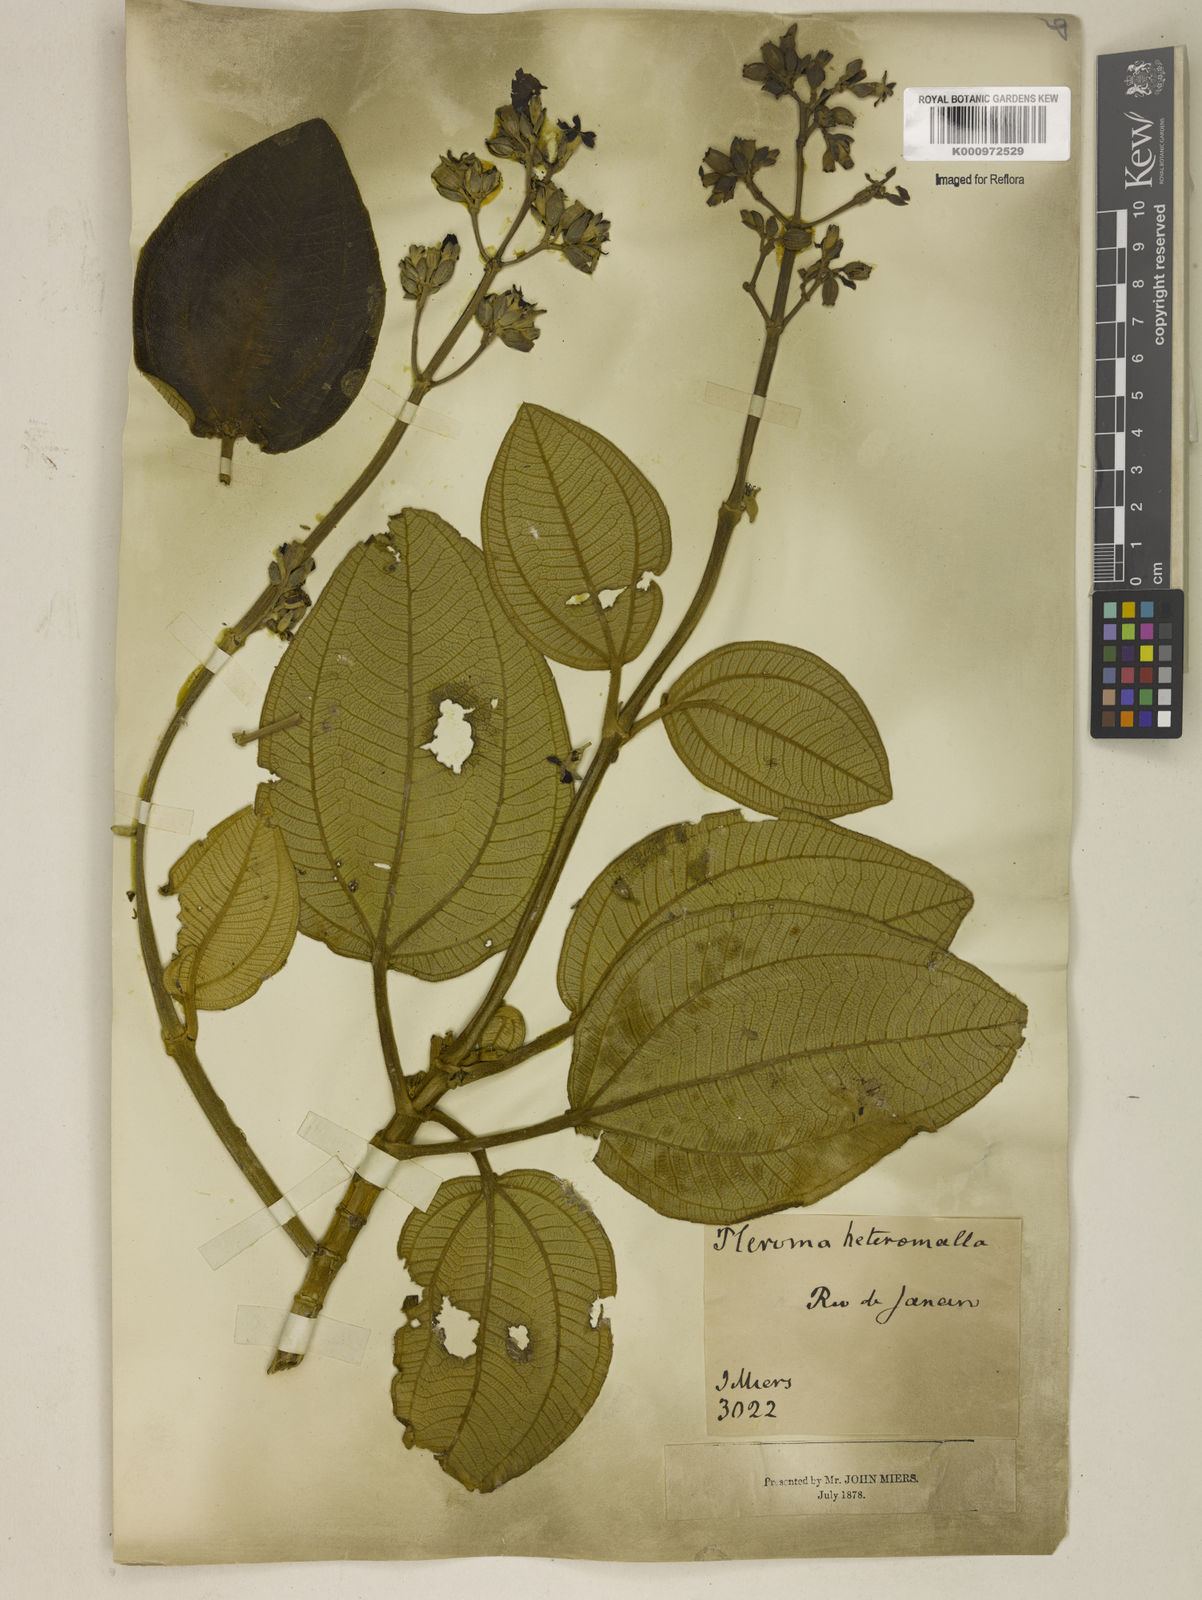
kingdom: Plantae
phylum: Tracheophyta
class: Magnoliopsida
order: Myrtales
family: Melastomataceae
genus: Pleroma
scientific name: Pleroma heteromallum
